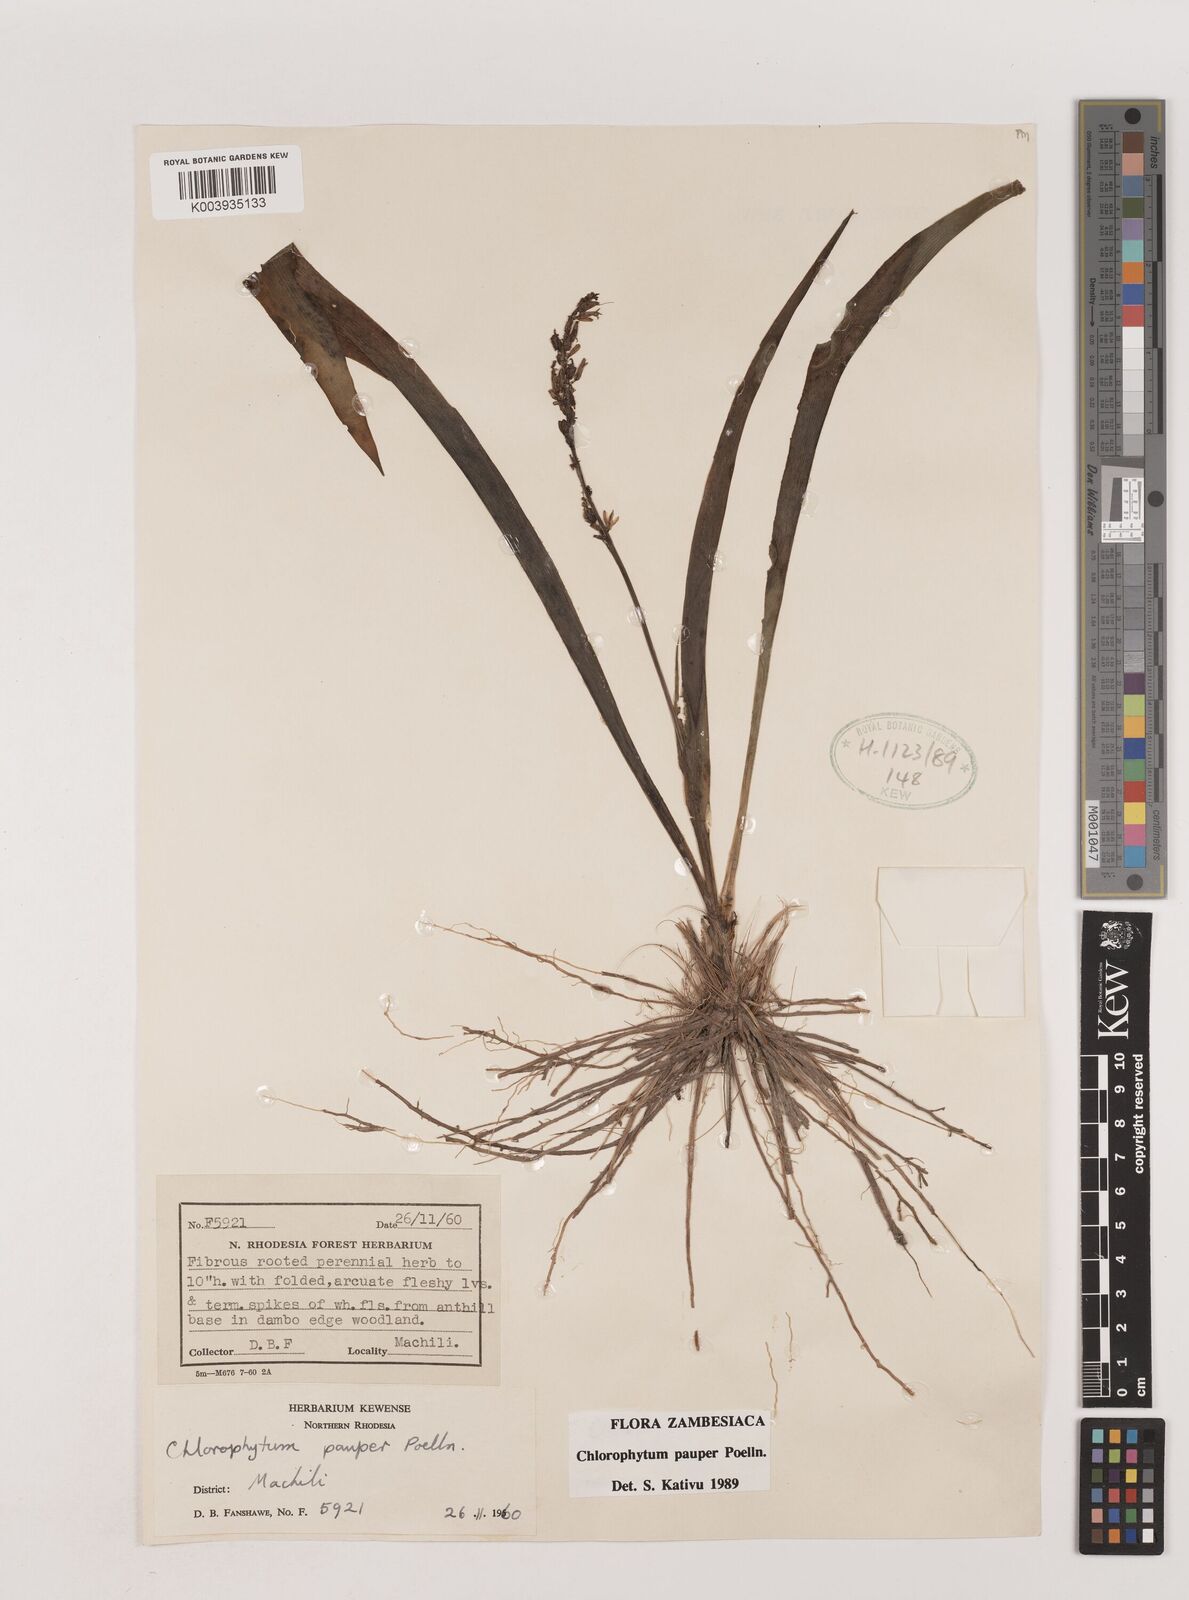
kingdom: Plantae
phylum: Tracheophyta
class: Liliopsida
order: Asparagales
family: Asparagaceae
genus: Chlorophytum
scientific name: Chlorophytum pauper
